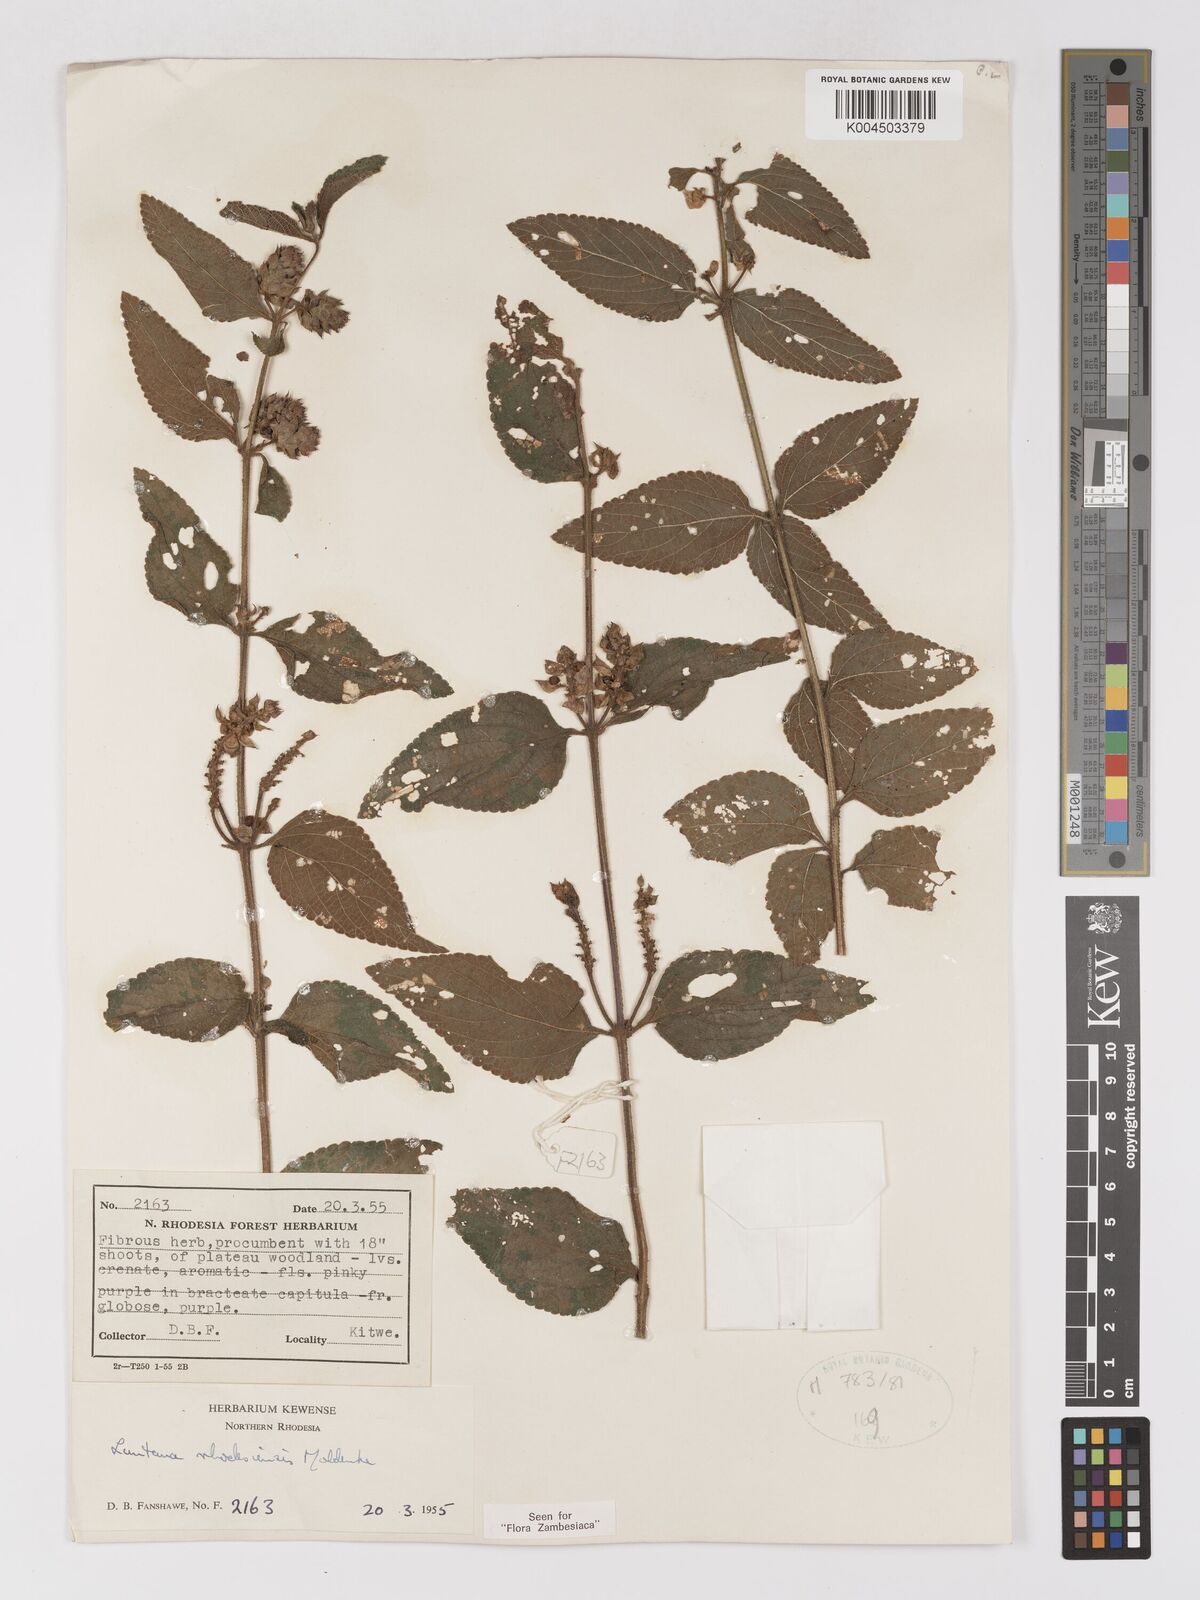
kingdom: Plantae
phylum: Tracheophyta
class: Magnoliopsida
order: Lamiales
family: Verbenaceae
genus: Lantana
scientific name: Lantana ukambensis
